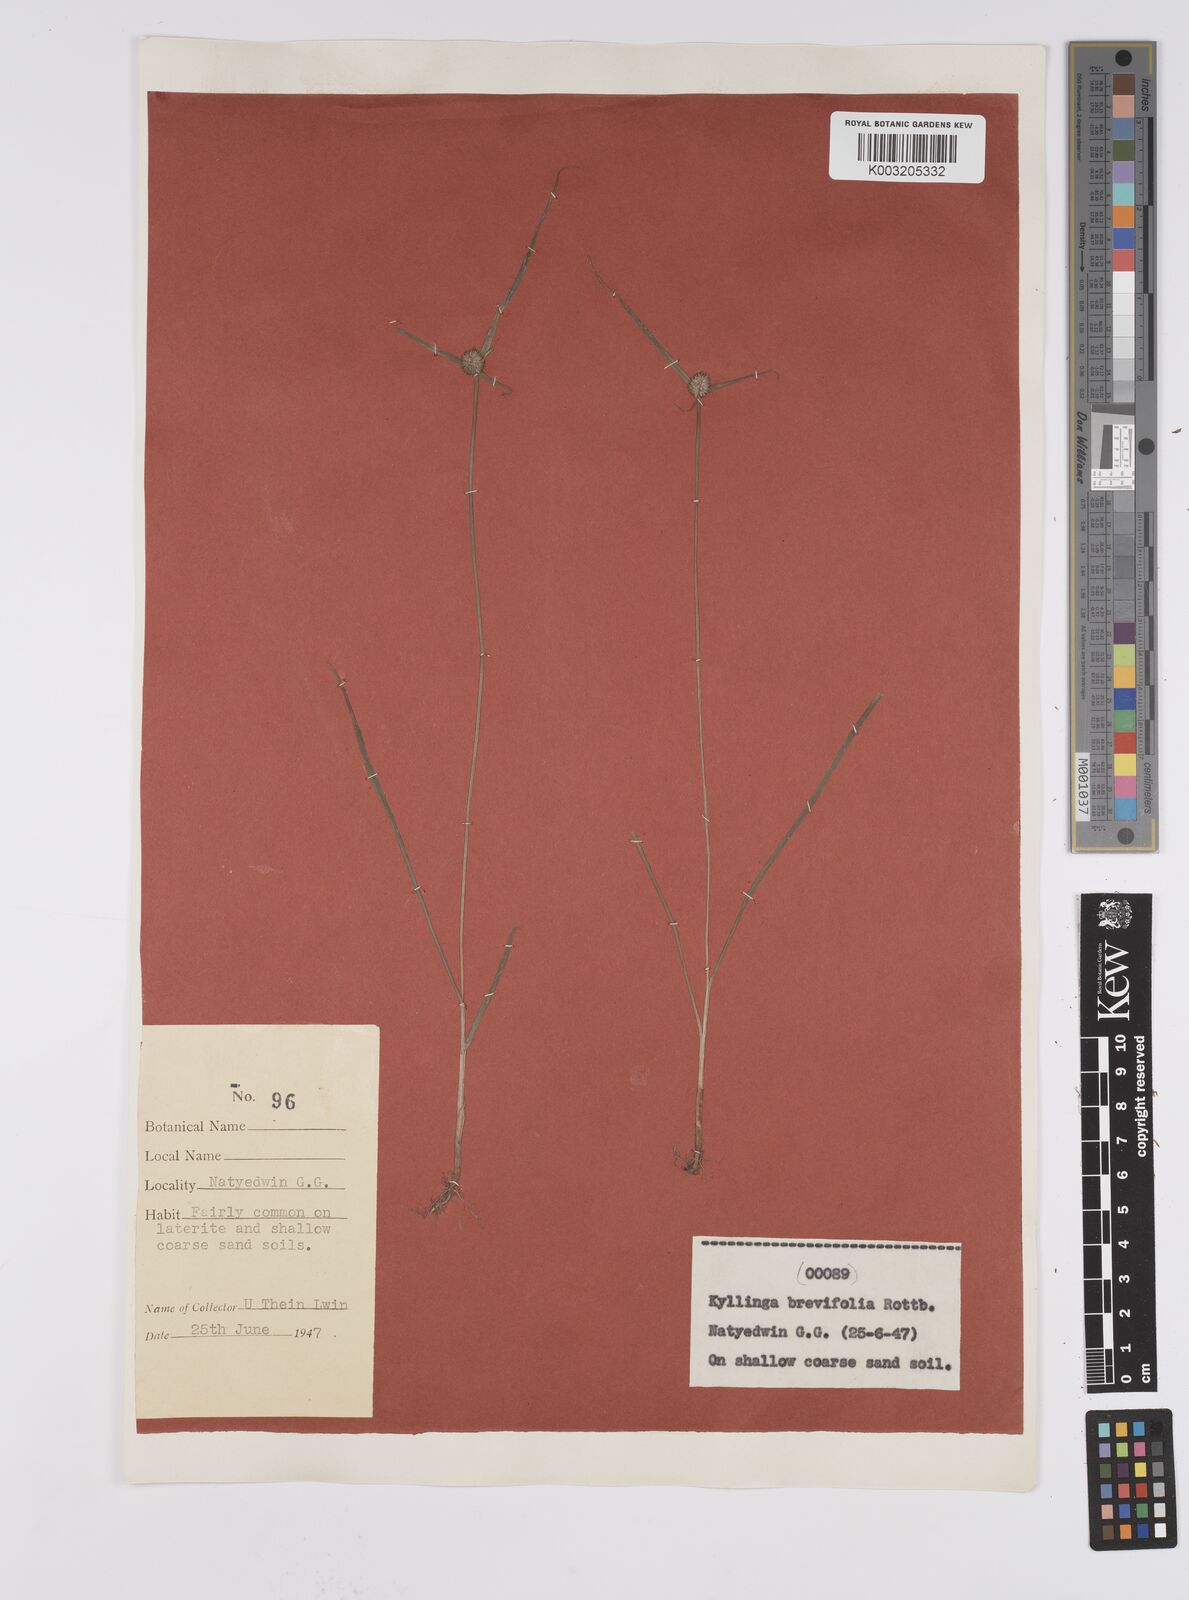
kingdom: Plantae
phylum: Tracheophyta
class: Liliopsida
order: Poales
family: Cyperaceae
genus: Cyperus
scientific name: Cyperus brevifolius
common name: Globe kyllinga
